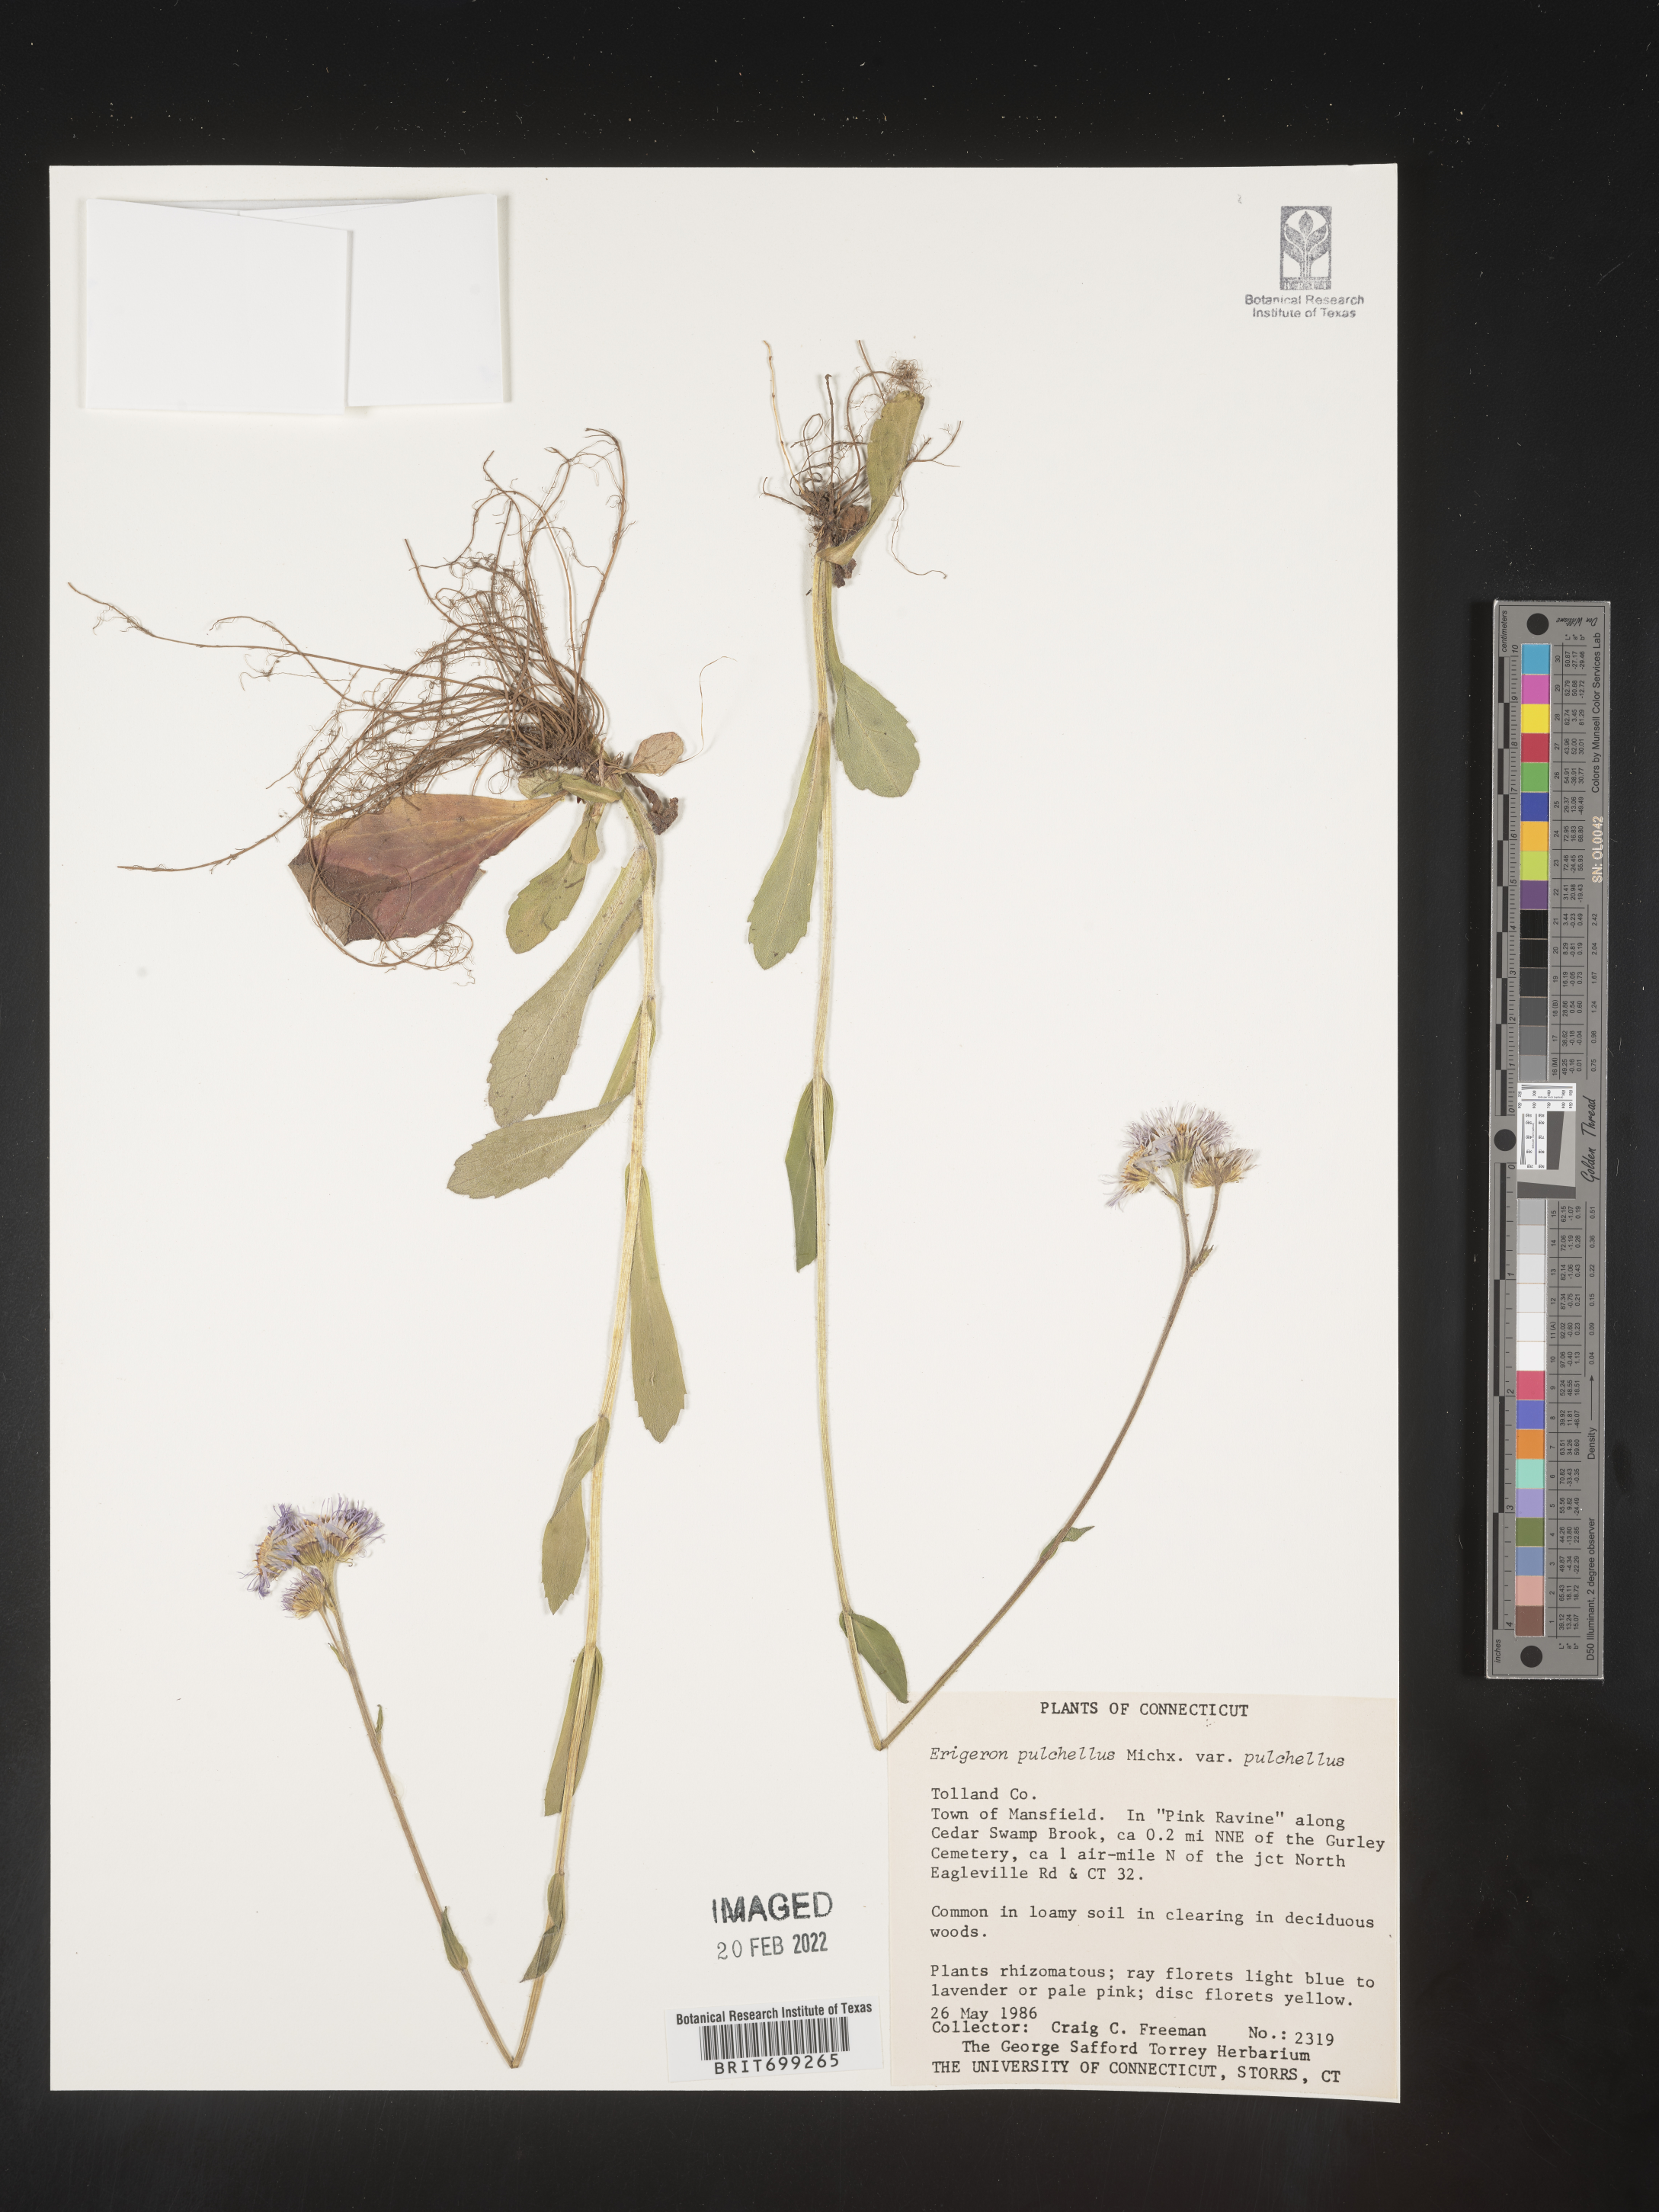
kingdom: Plantae
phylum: Tracheophyta
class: Magnoliopsida
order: Asterales
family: Asteraceae
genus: Erigeron
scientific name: Erigeron pulchellus
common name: Hairy fleabane
